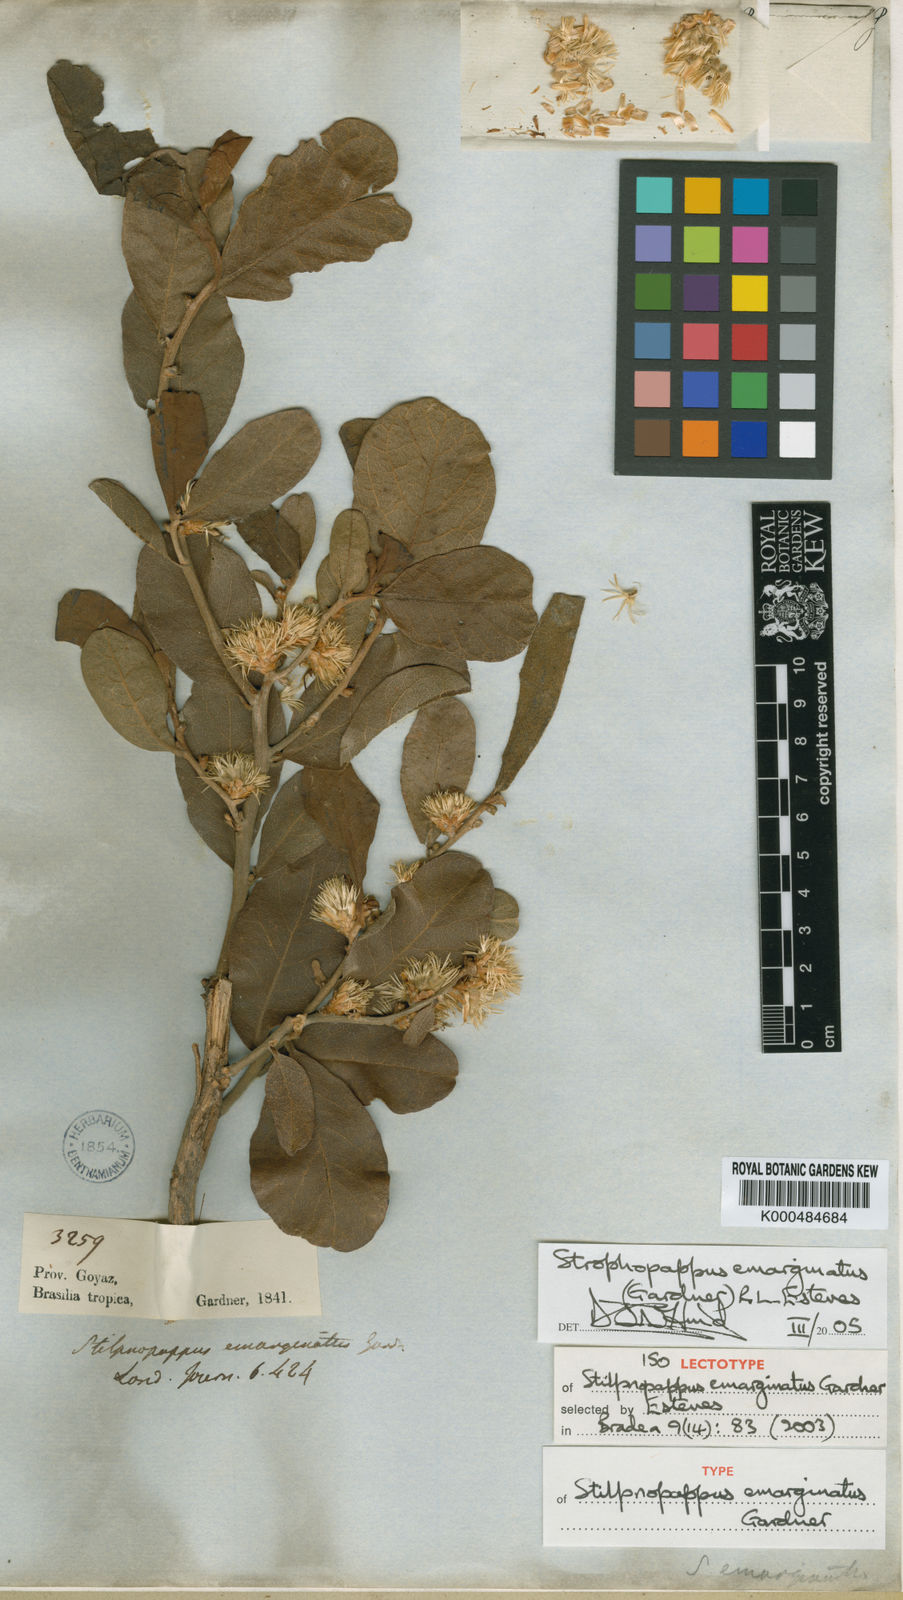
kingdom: Plantae
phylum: Tracheophyta
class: Magnoliopsida
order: Asterales
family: Asteraceae
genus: Stilpnopappus
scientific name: Stilpnopappus emarginatus
